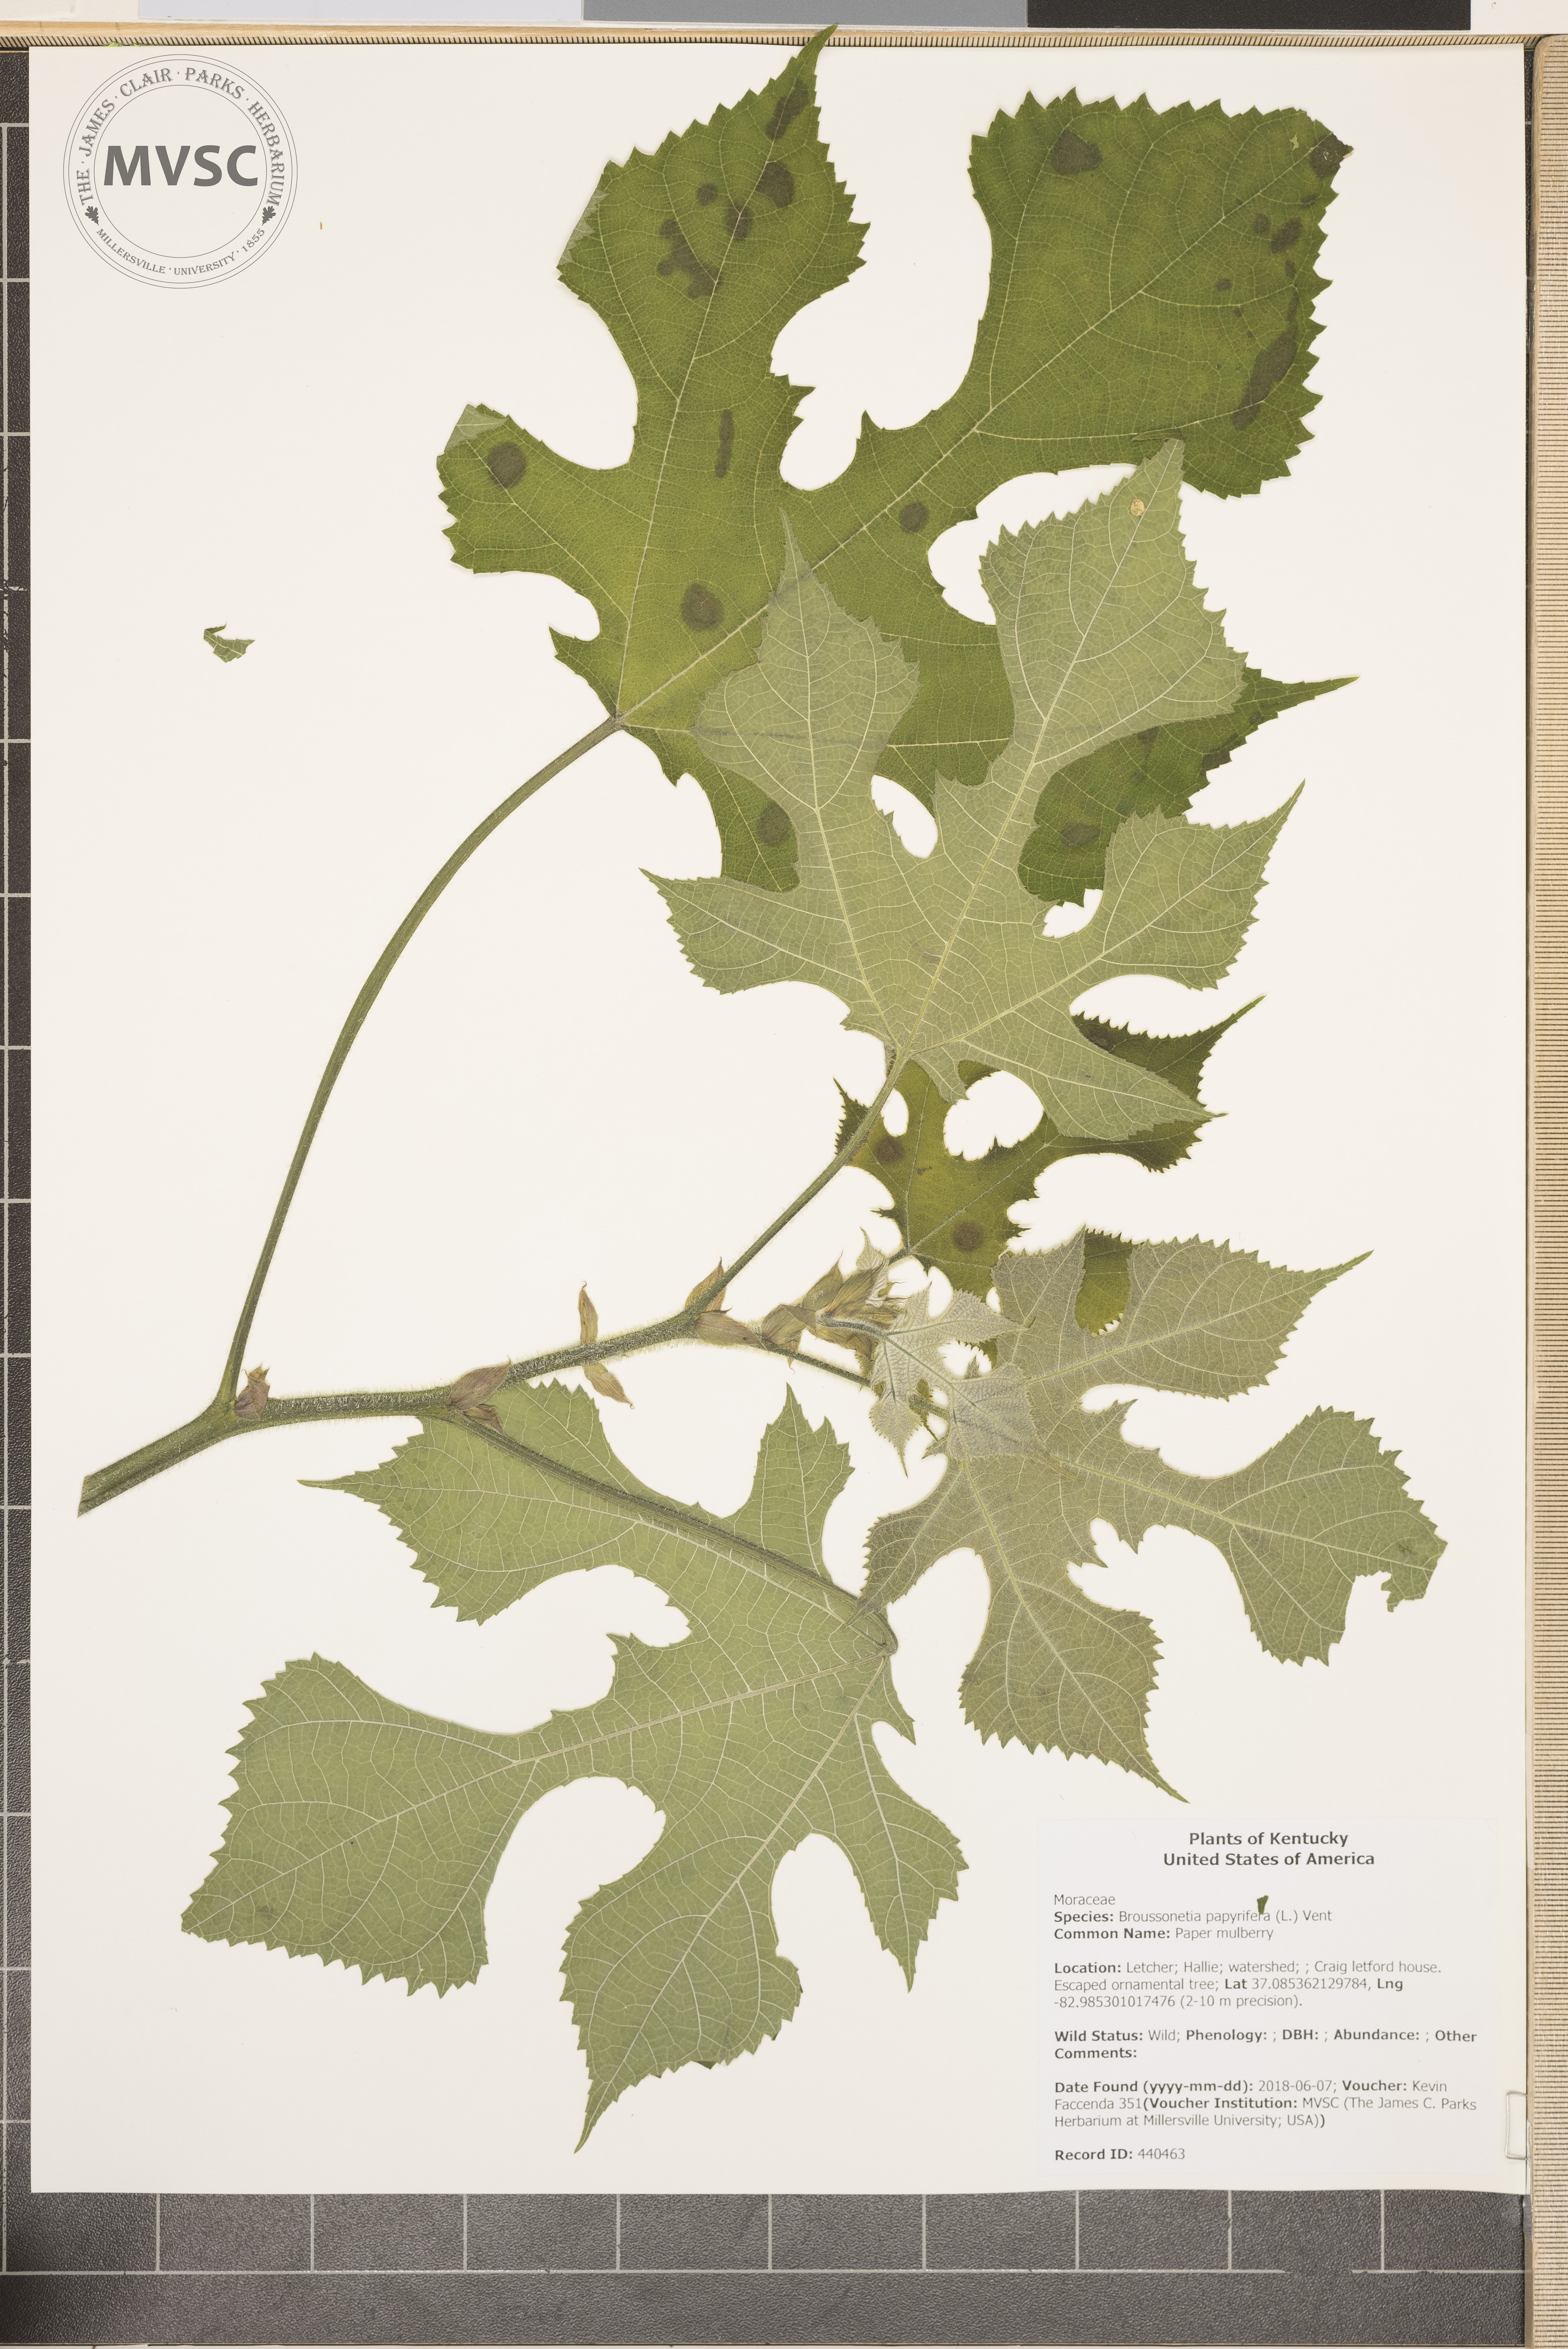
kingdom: Plantae
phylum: Tracheophyta
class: Magnoliopsida
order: Rosales
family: Moraceae
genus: Broussonetia
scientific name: Broussonetia papyrifera
